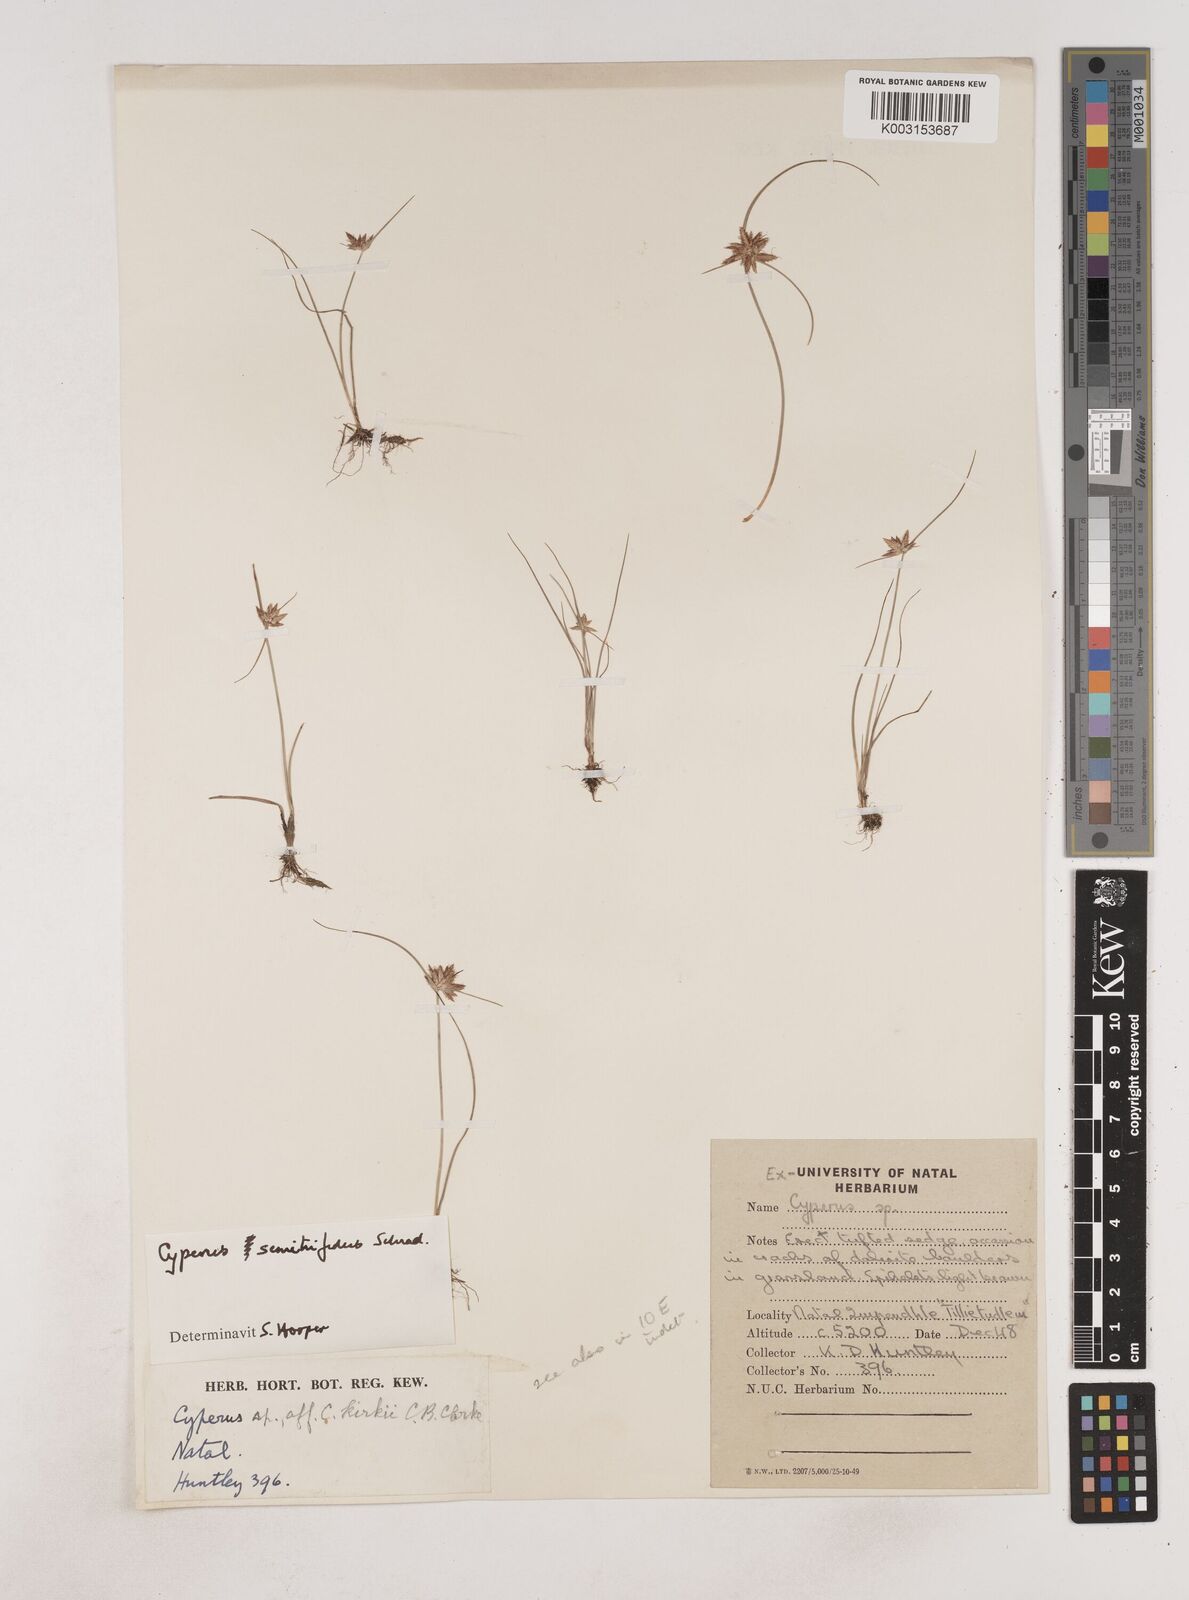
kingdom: Plantae
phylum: Tracheophyta
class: Liliopsida
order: Poales
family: Cyperaceae
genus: Cyperus
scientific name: Cyperus semitrifidus
